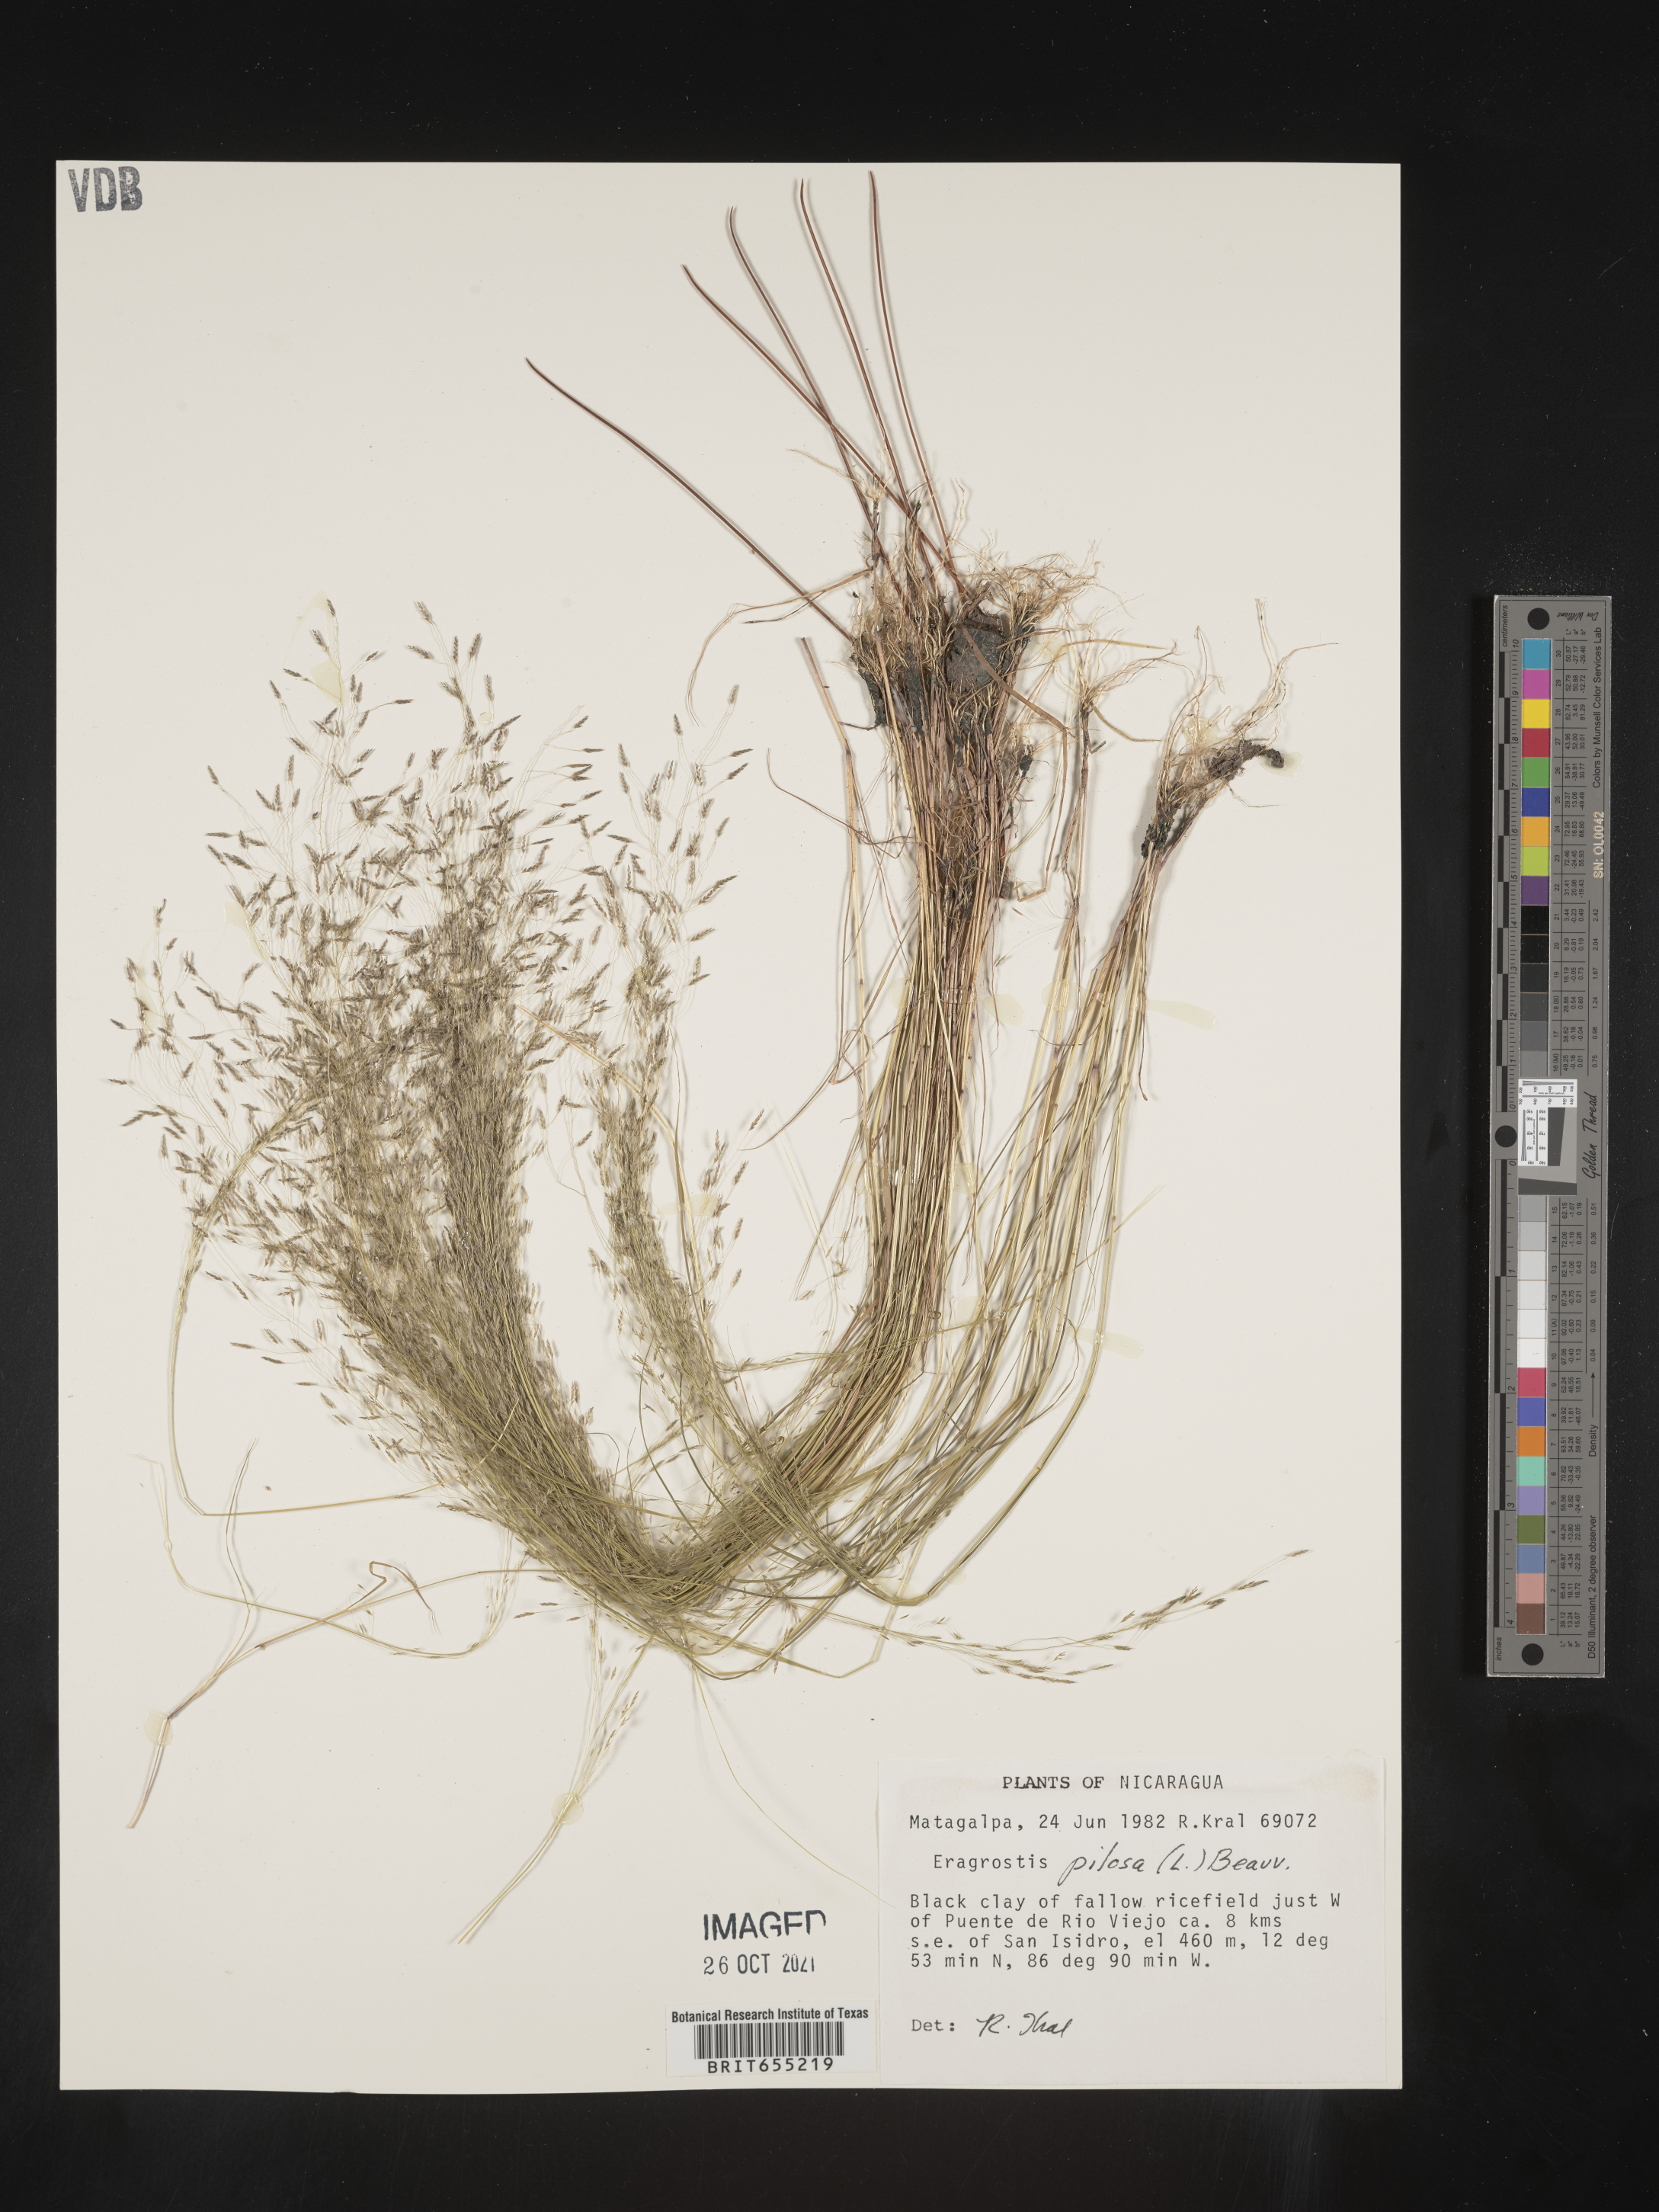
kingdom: Plantae
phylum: Tracheophyta
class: Liliopsida
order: Poales
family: Poaceae
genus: Eragrostis
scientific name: Eragrostis
